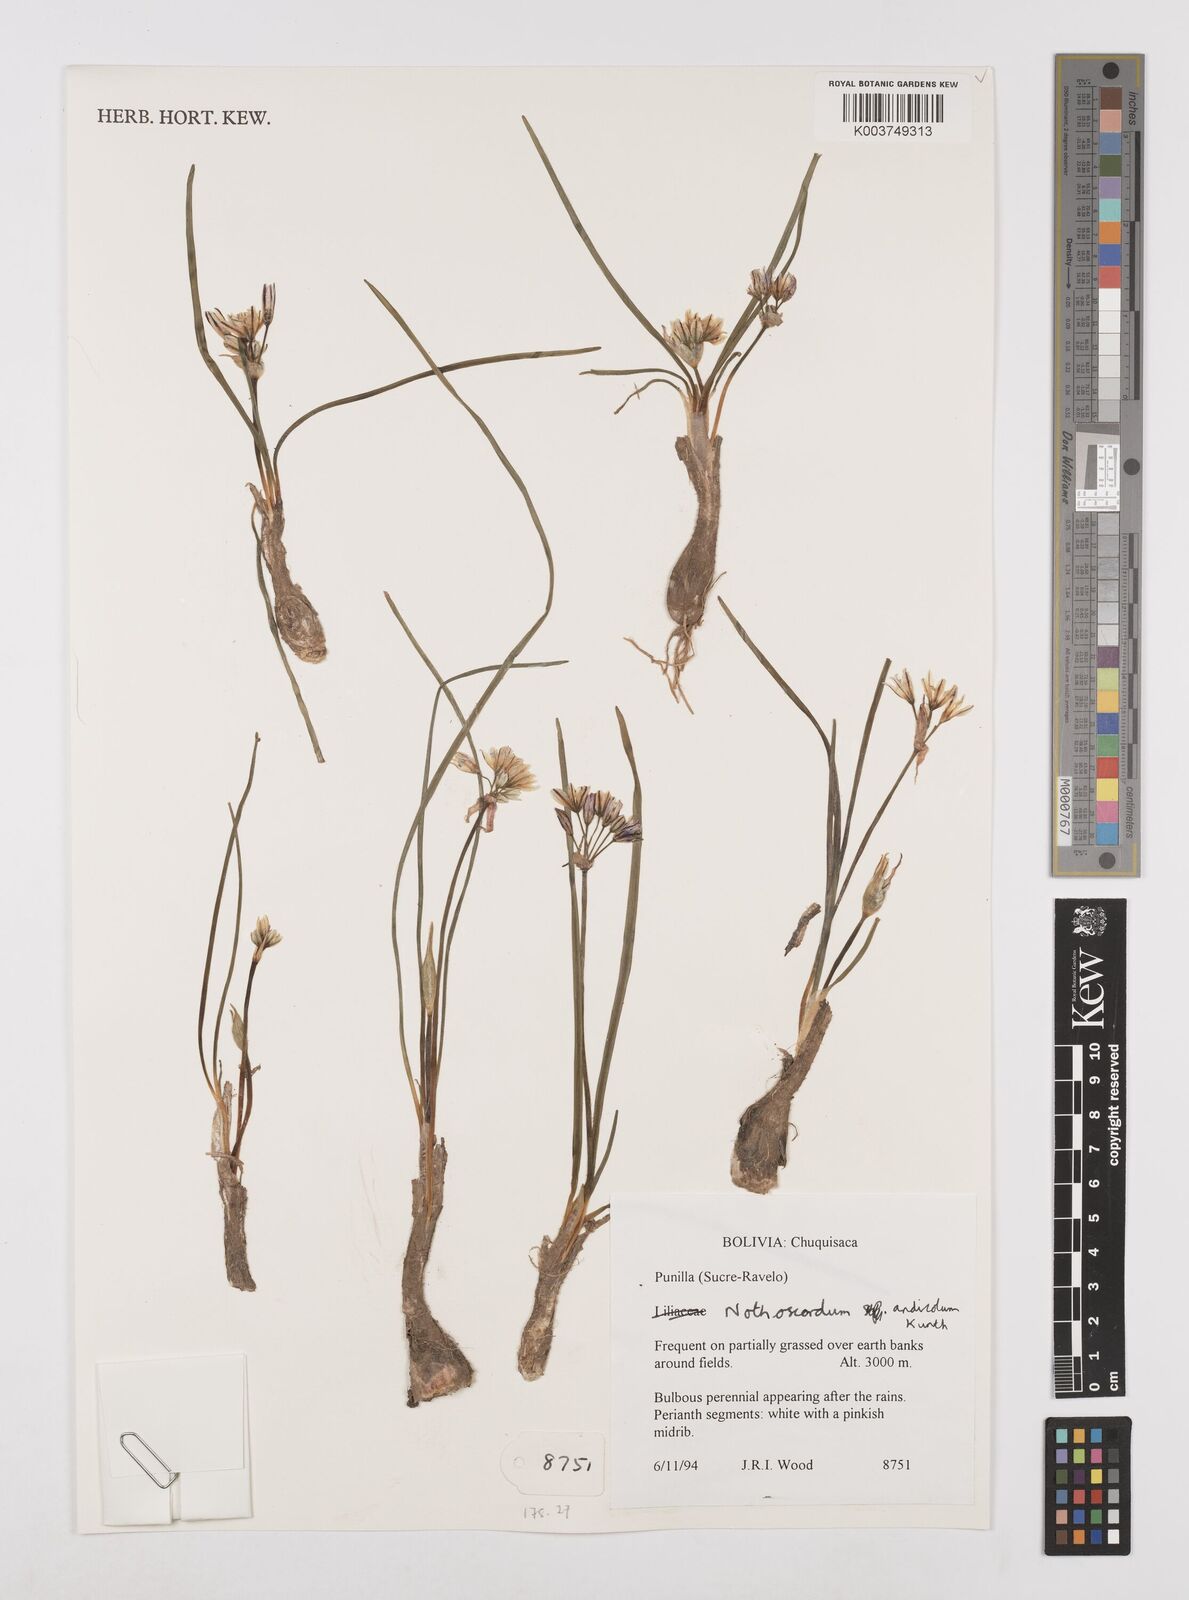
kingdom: Plantae
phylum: Tracheophyta
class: Liliopsida
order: Asparagales
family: Amaryllidaceae
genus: Nothoscordum
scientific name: Nothoscordum andicola
